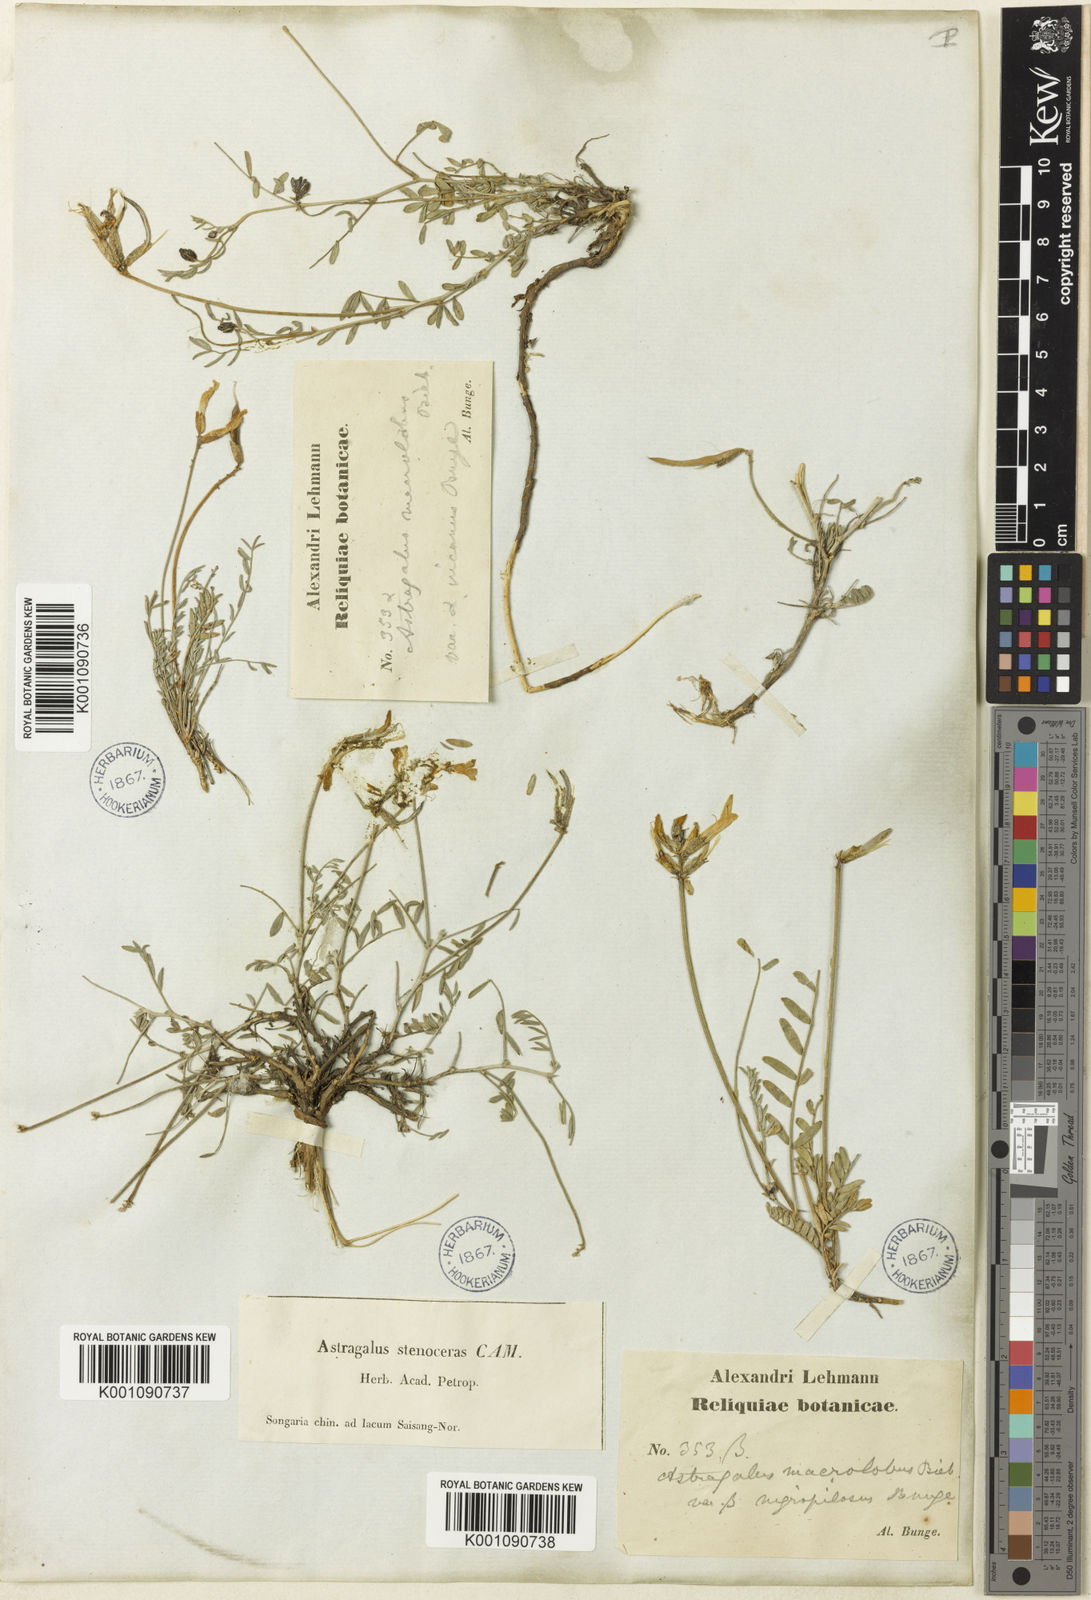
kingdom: Plantae
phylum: Tracheophyta
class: Magnoliopsida
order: Fabales
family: Fabaceae
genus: Astragalus
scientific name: Astragalus
